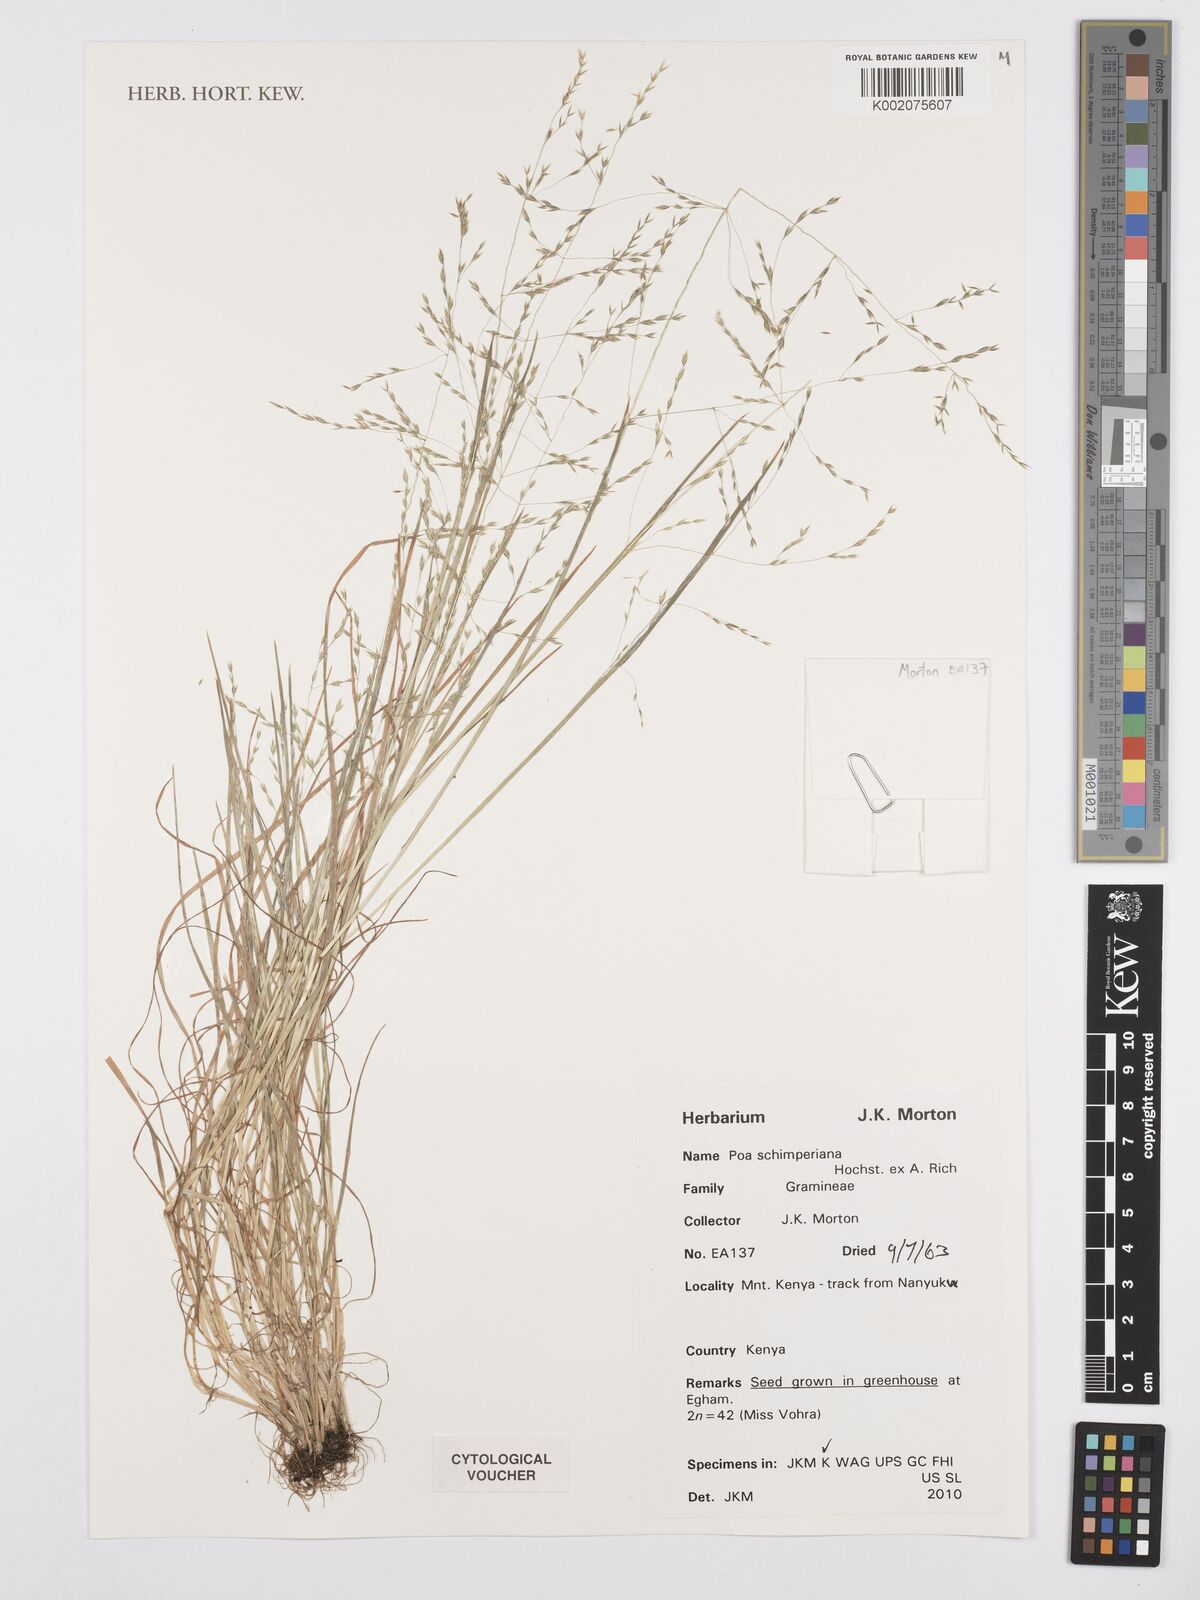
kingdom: Plantae
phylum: Tracheophyta
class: Liliopsida
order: Poales
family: Poaceae
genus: Poa
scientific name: Poa schimperiana
